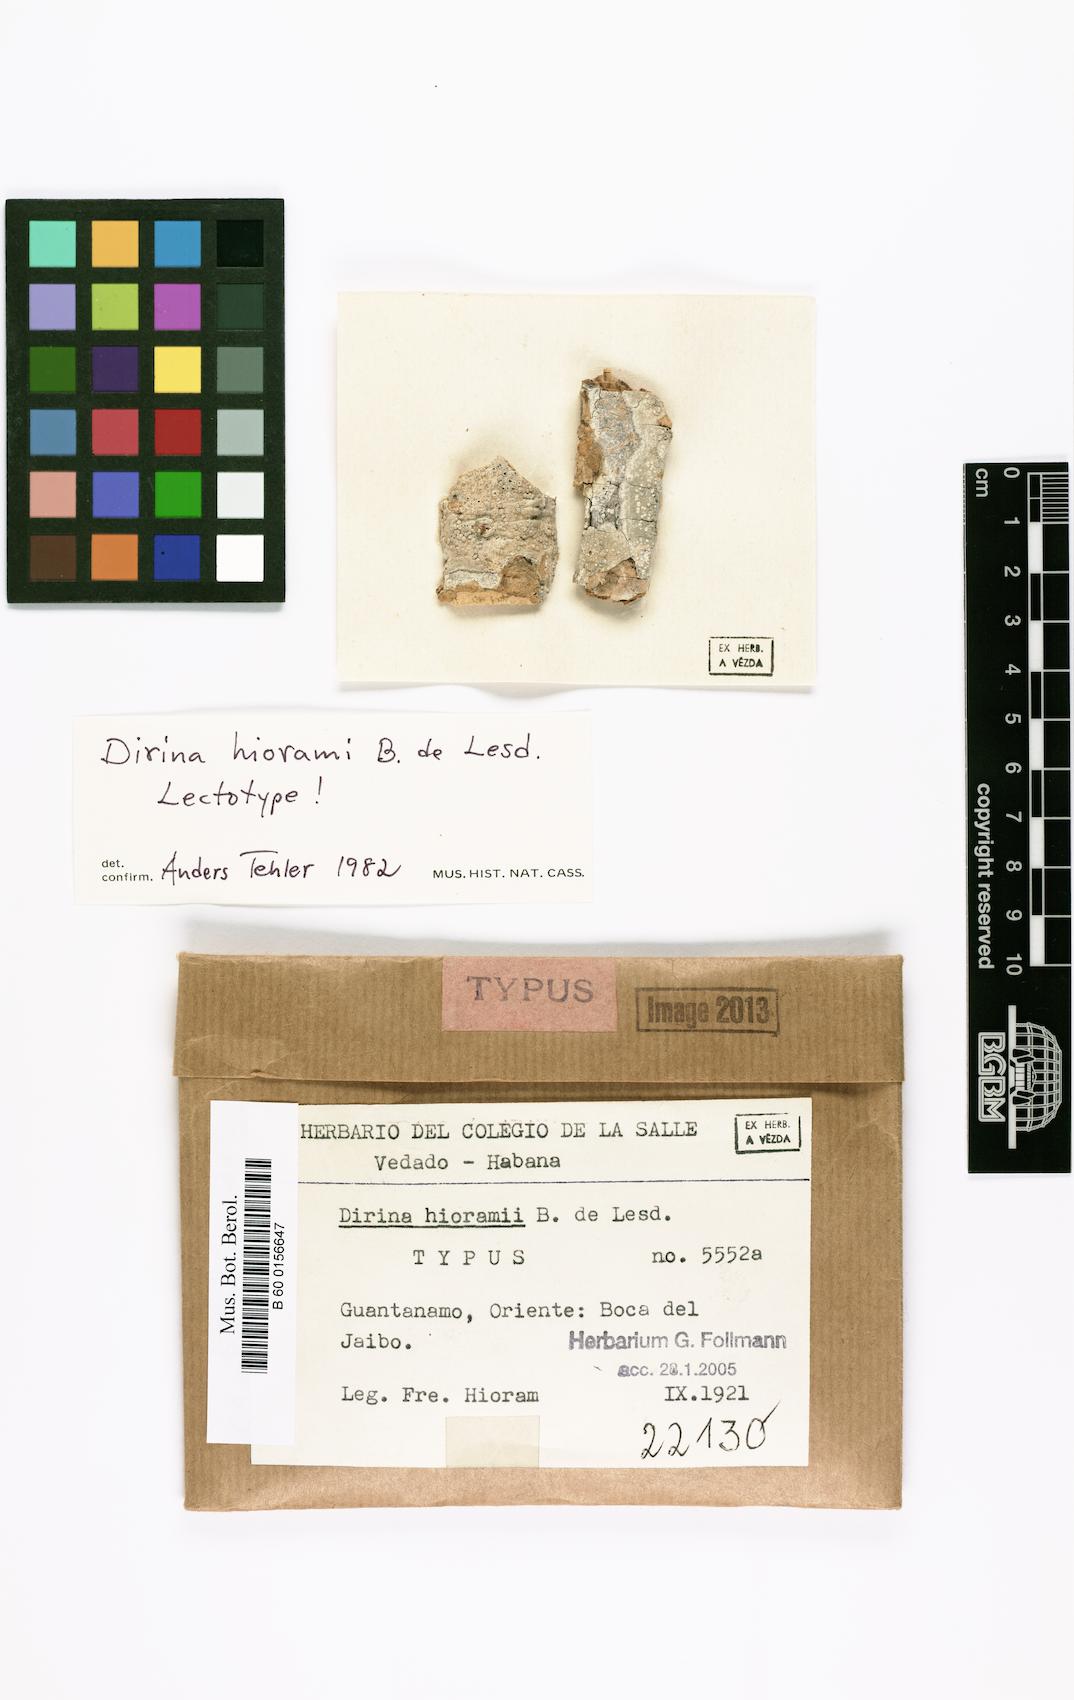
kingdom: Fungi
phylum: Ascomycota
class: Arthoniomycetes
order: Arthoniales
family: Roccellaceae
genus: Dirina
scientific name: Dirina hierami
